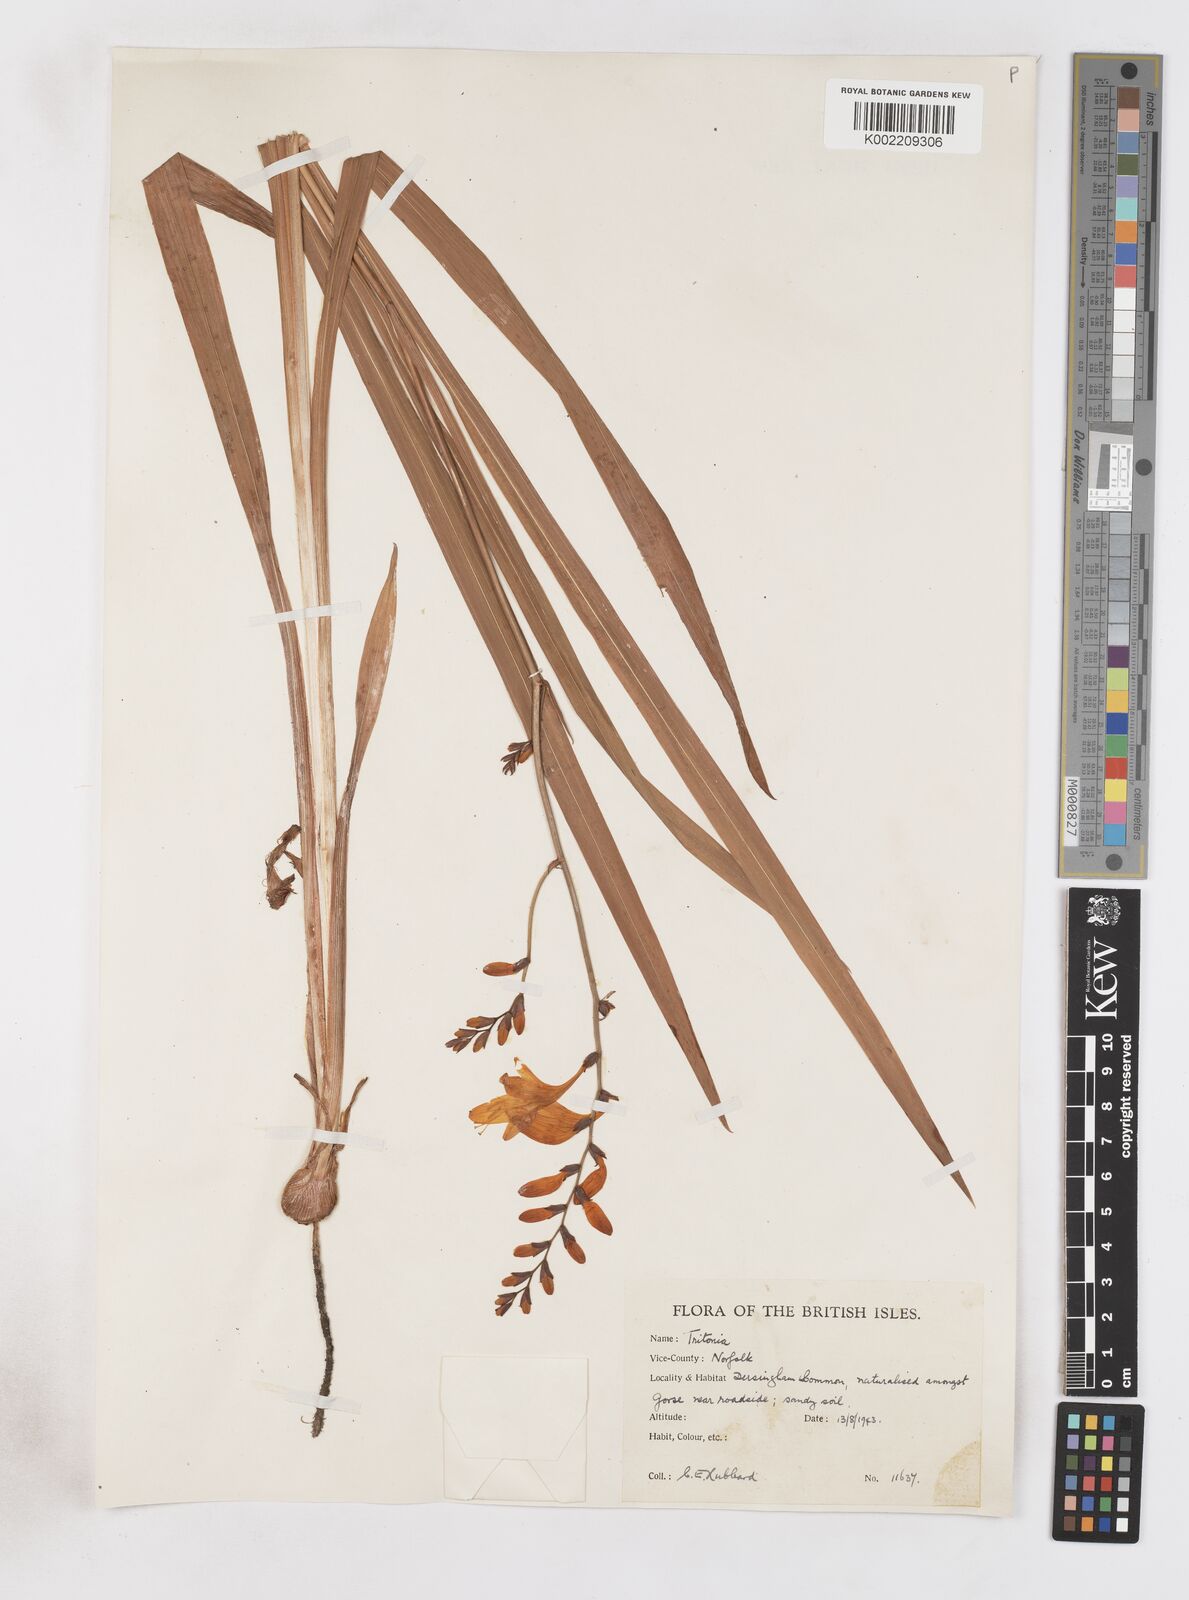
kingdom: Plantae
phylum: Tracheophyta
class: Liliopsida
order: Asparagales
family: Iridaceae
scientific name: Iridaceae
